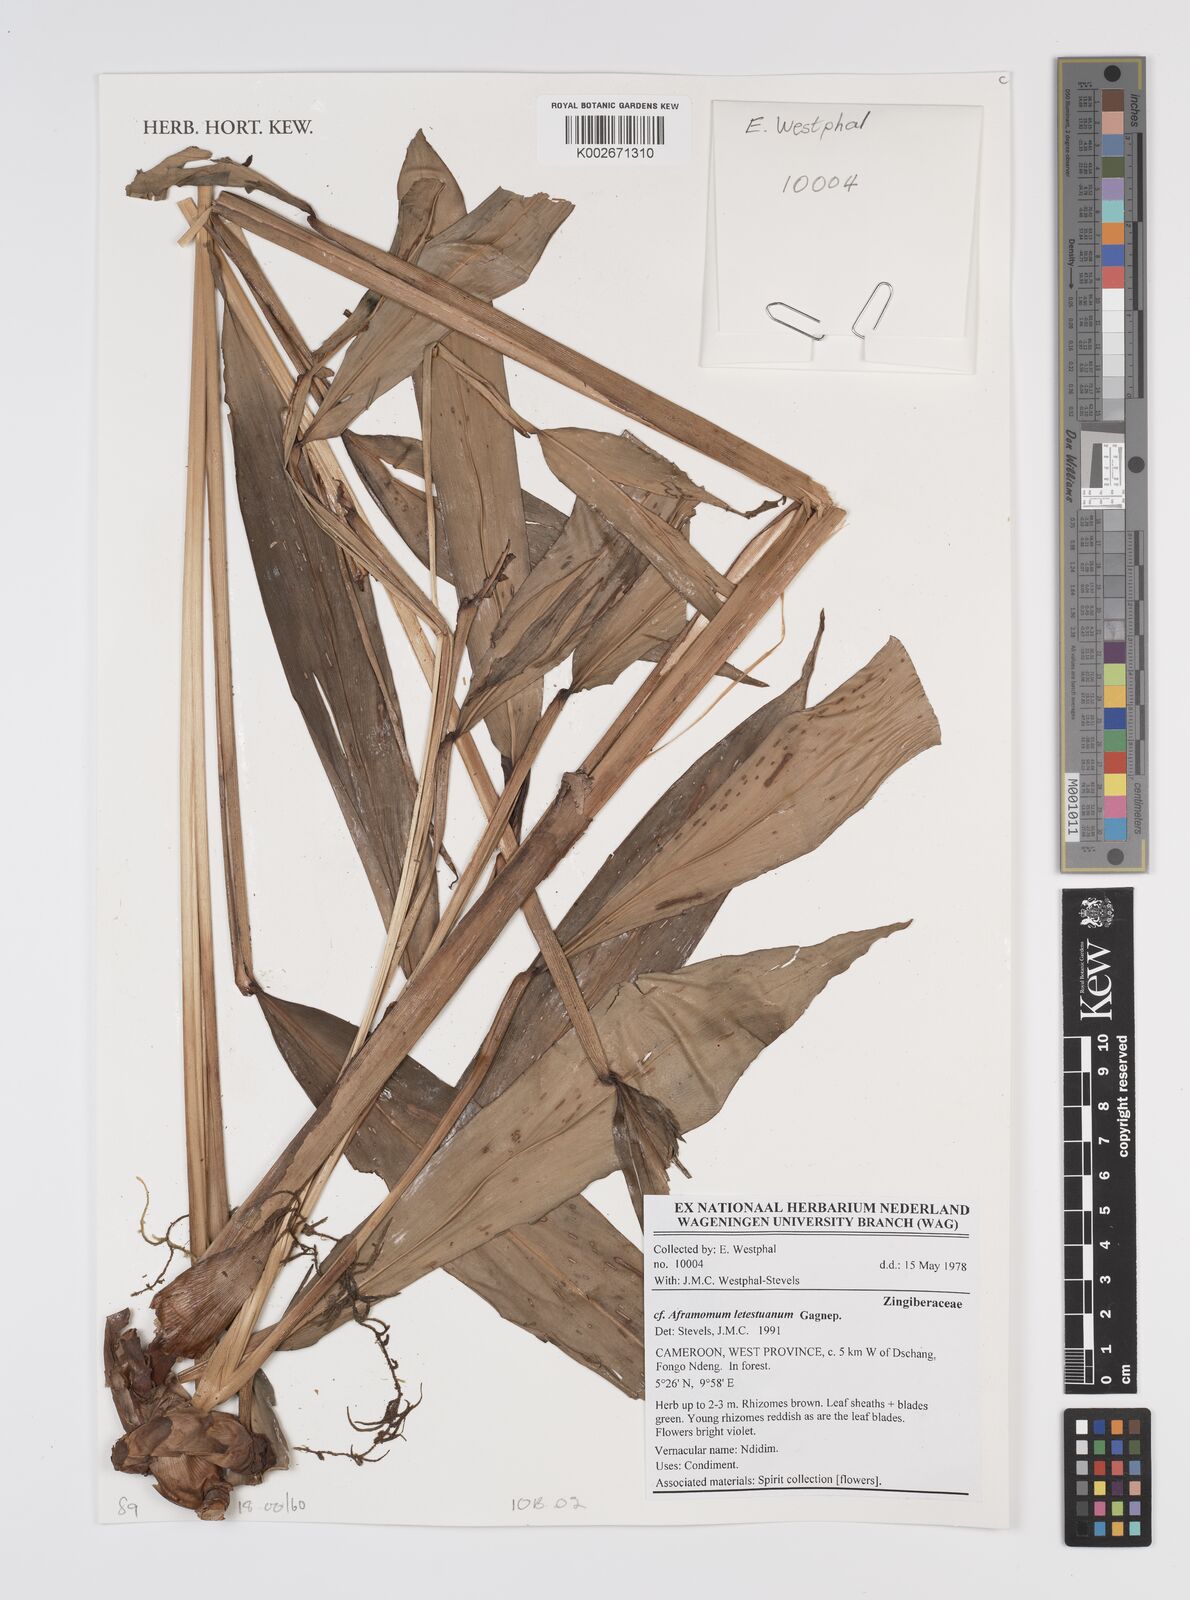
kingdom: Plantae
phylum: Tracheophyta
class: Liliopsida
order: Zingiberales
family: Zingiberaceae
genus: Aframomum
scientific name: Aframomum letestuanum
